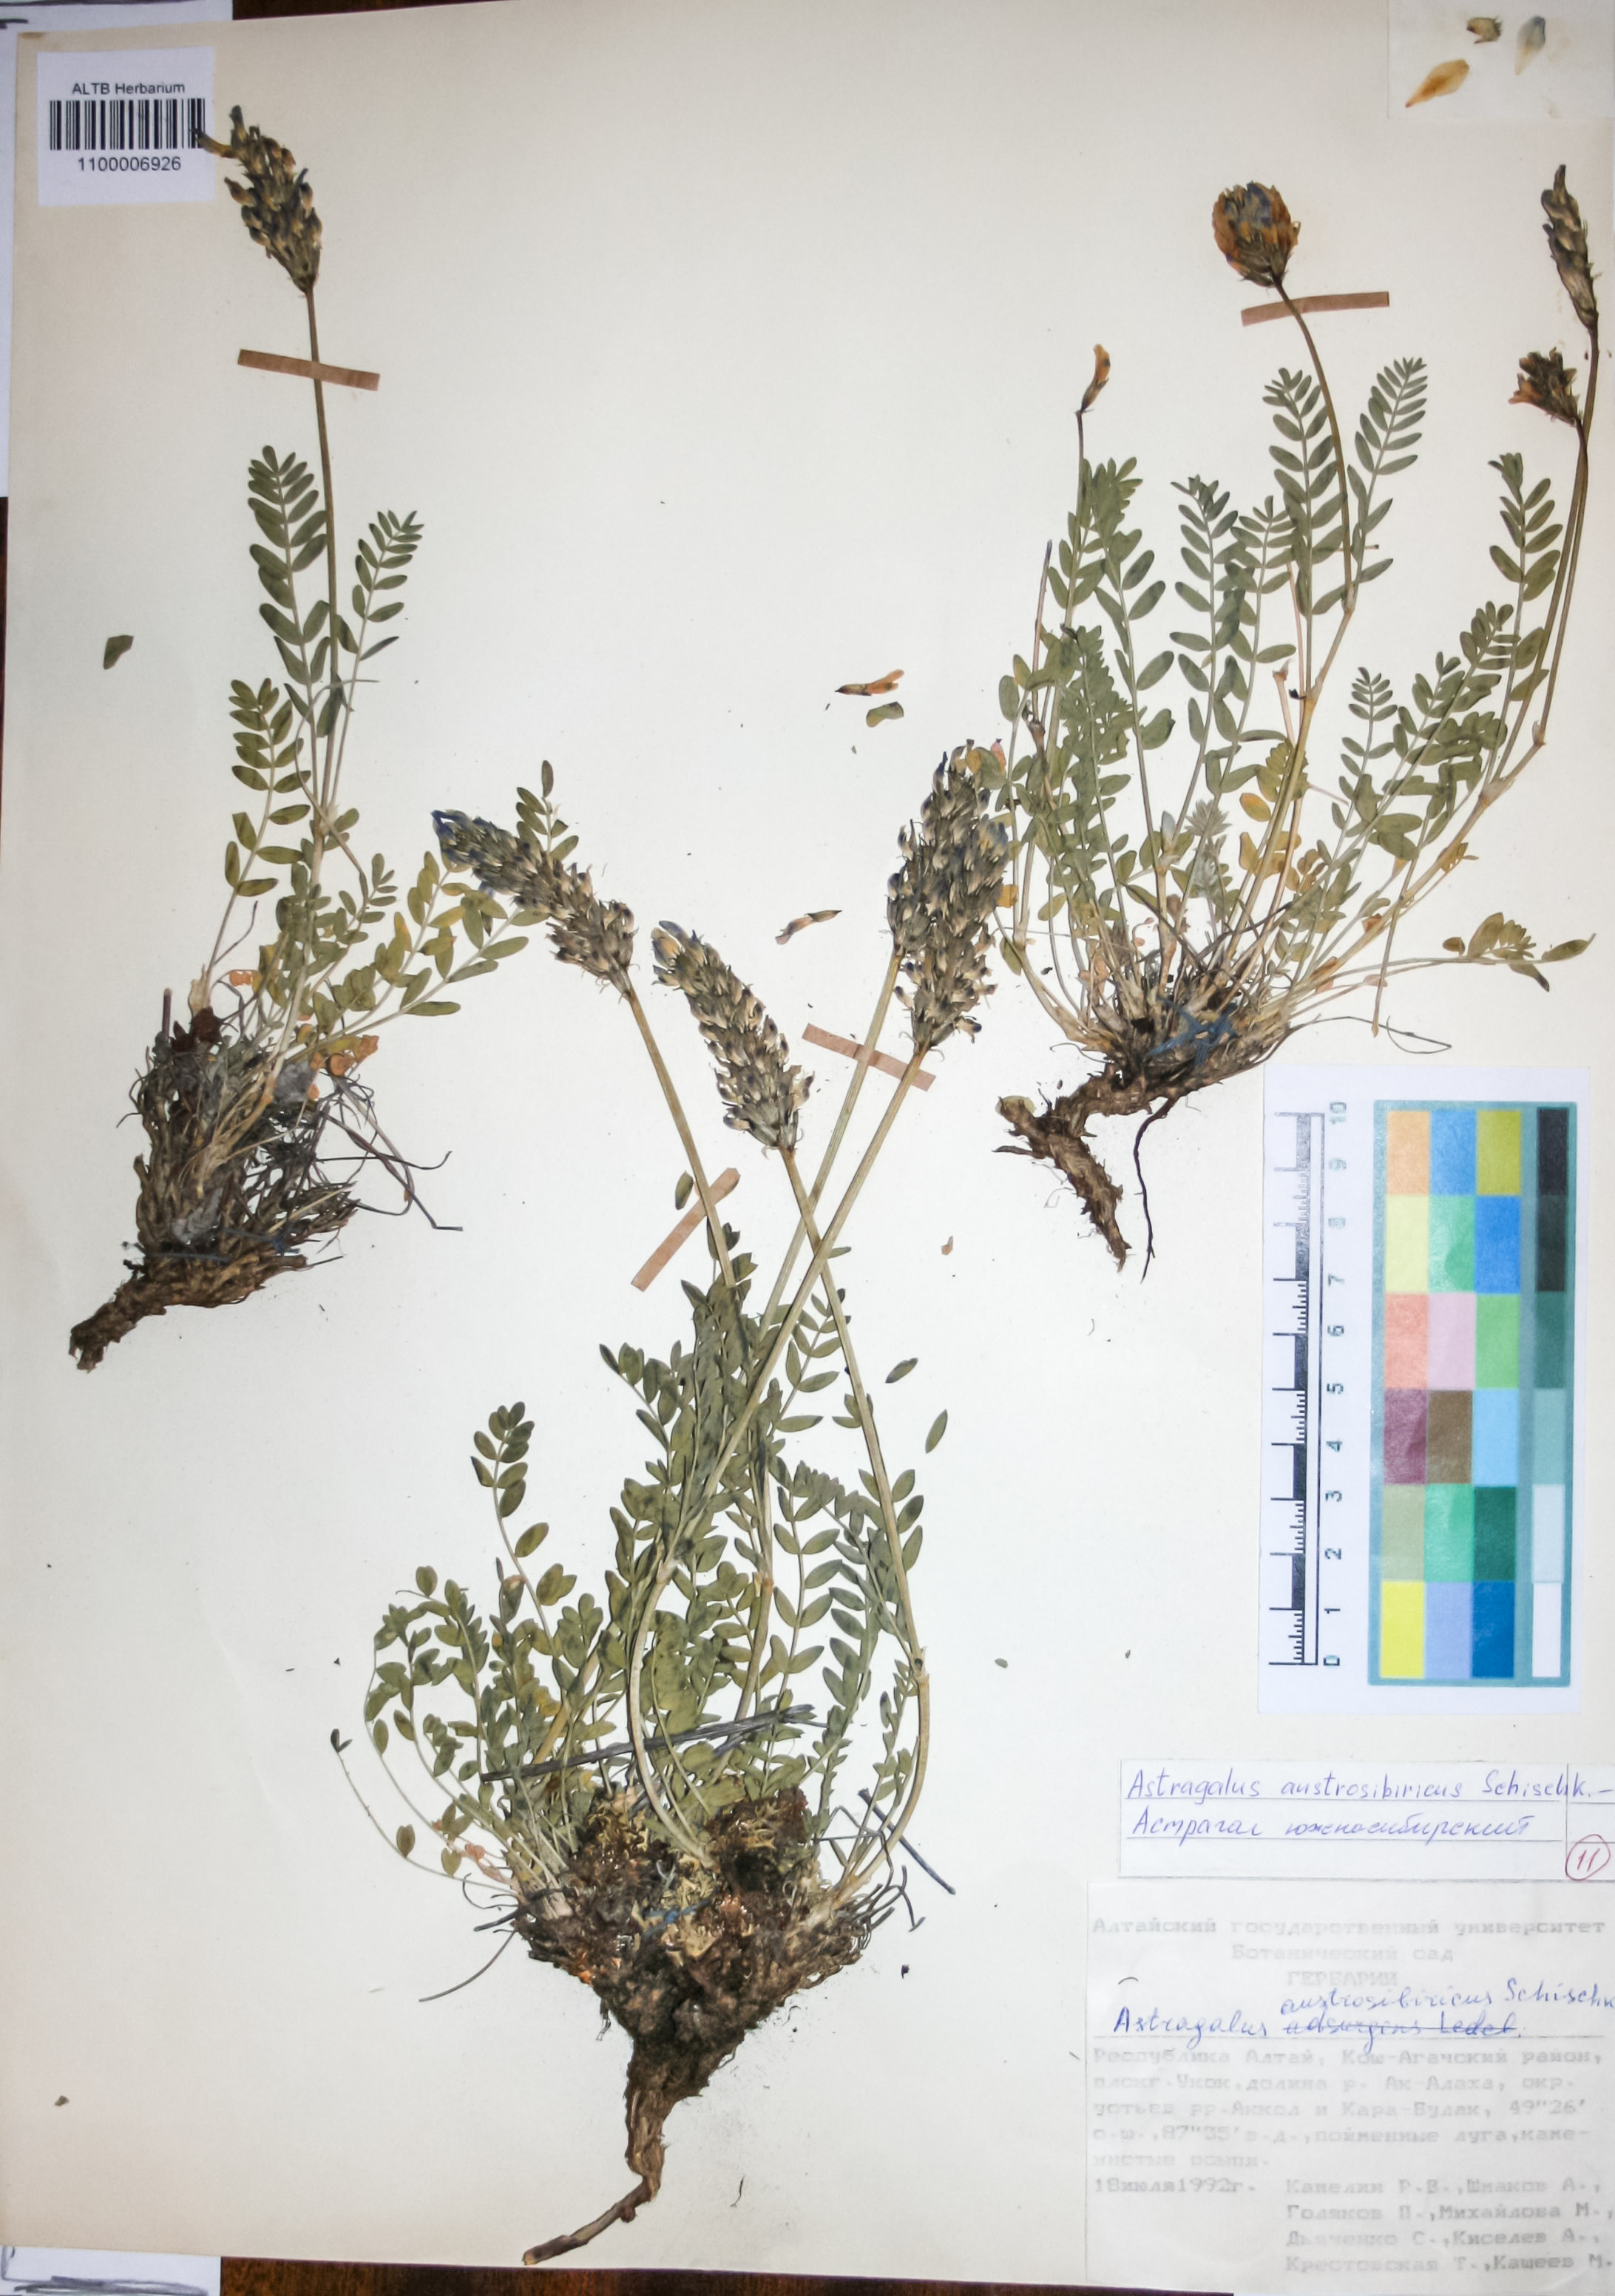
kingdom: Plantae
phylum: Tracheophyta
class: Magnoliopsida
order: Fabales
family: Fabaceae
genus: Astragalus
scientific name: Astragalus laxmannii
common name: Laxmann's milk-vetch
